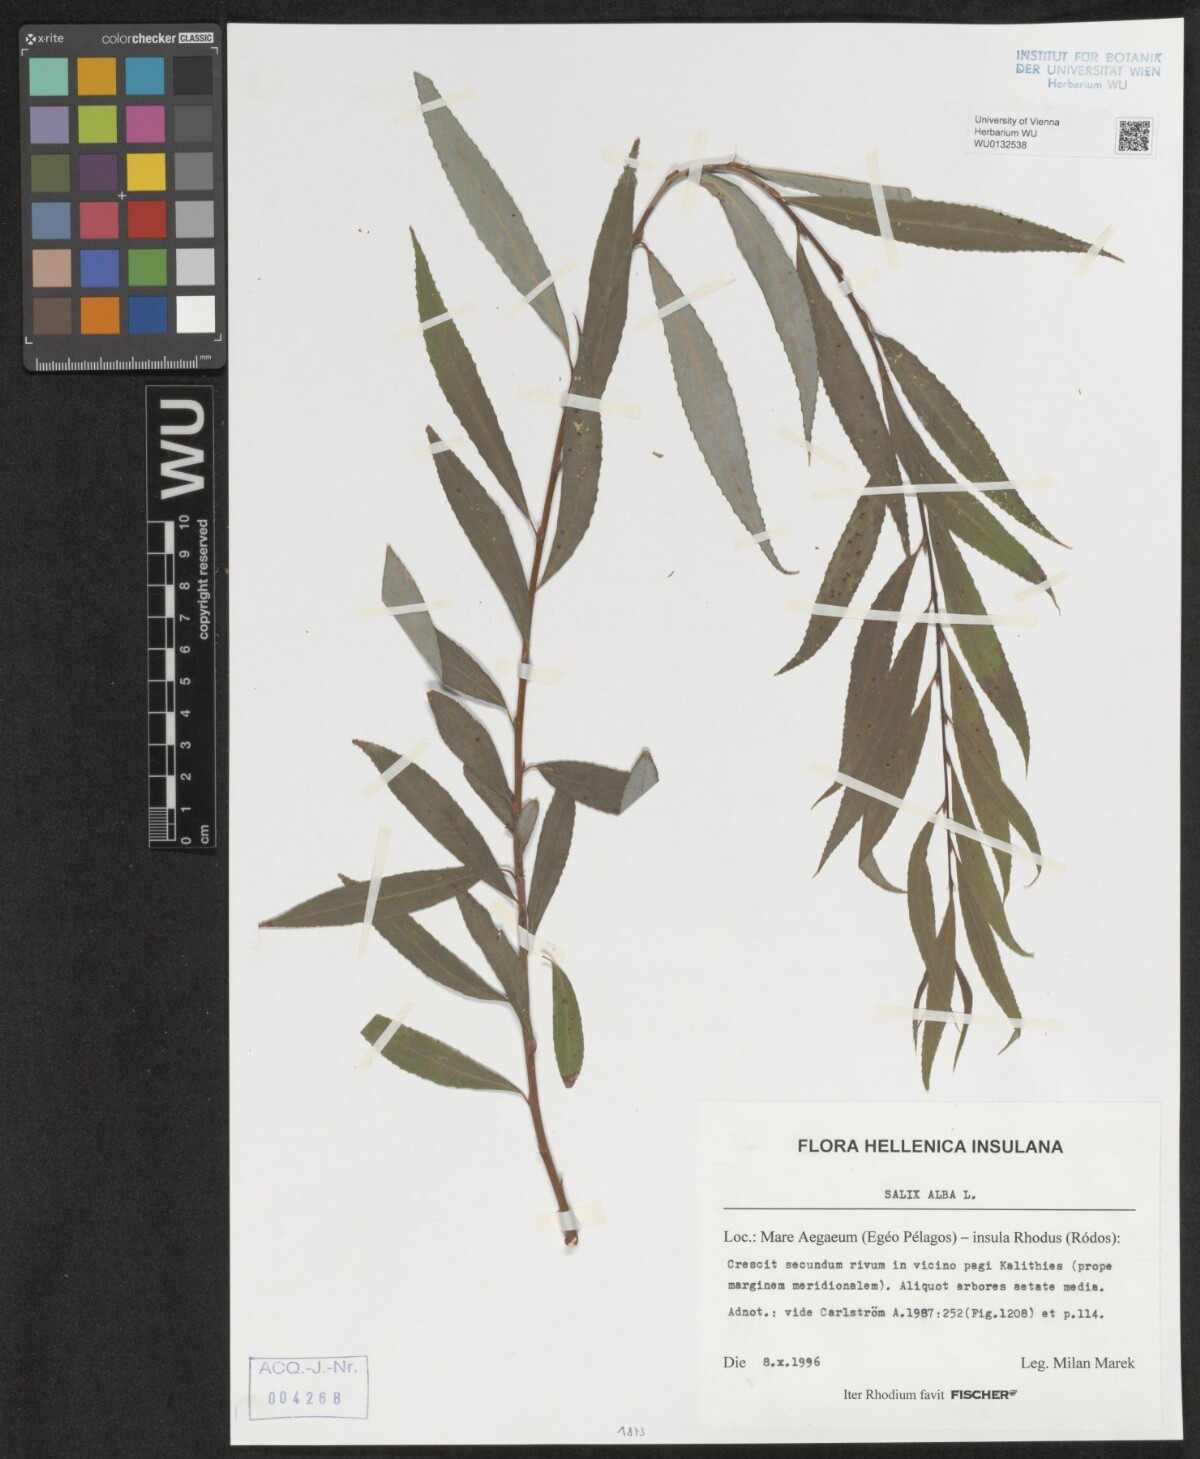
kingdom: Plantae
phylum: Tracheophyta
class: Magnoliopsida
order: Malpighiales
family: Salicaceae
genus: Salix
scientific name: Salix alba
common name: White willow
